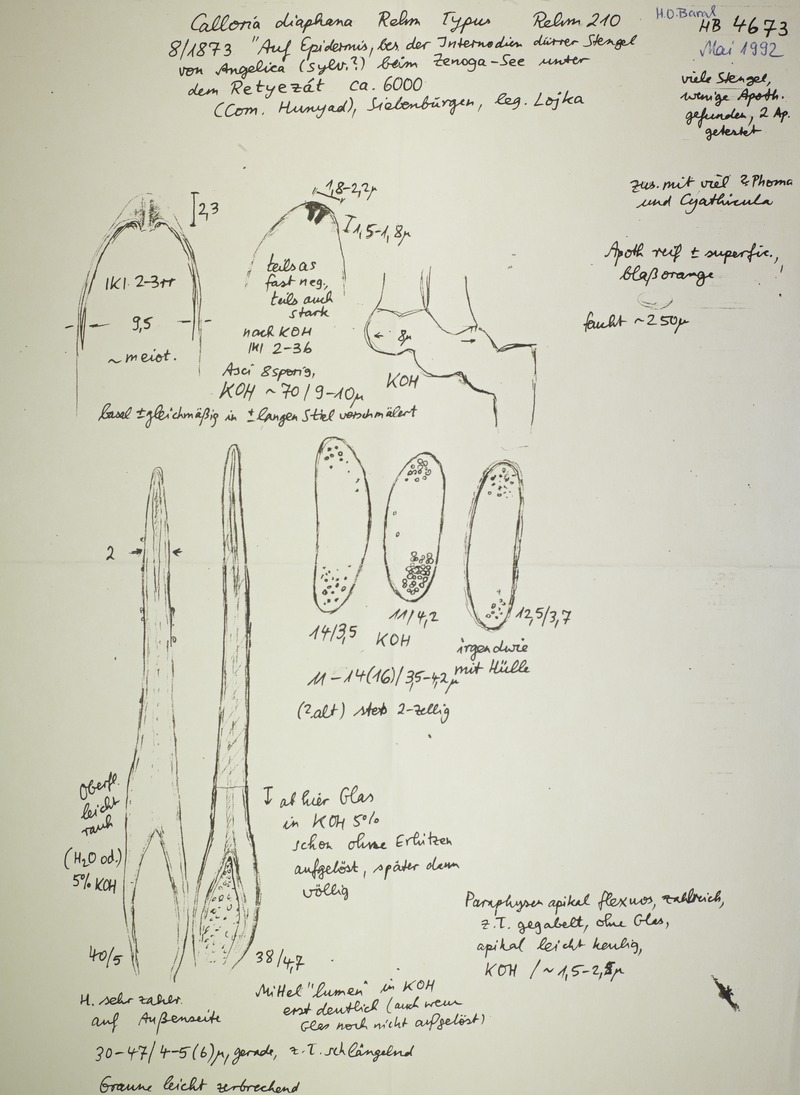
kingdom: Fungi
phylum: Ascomycota
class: Leotiomycetes
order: Helotiales
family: Calloriaceae
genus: Laetinaevia
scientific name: Laetinaevia diaphana
